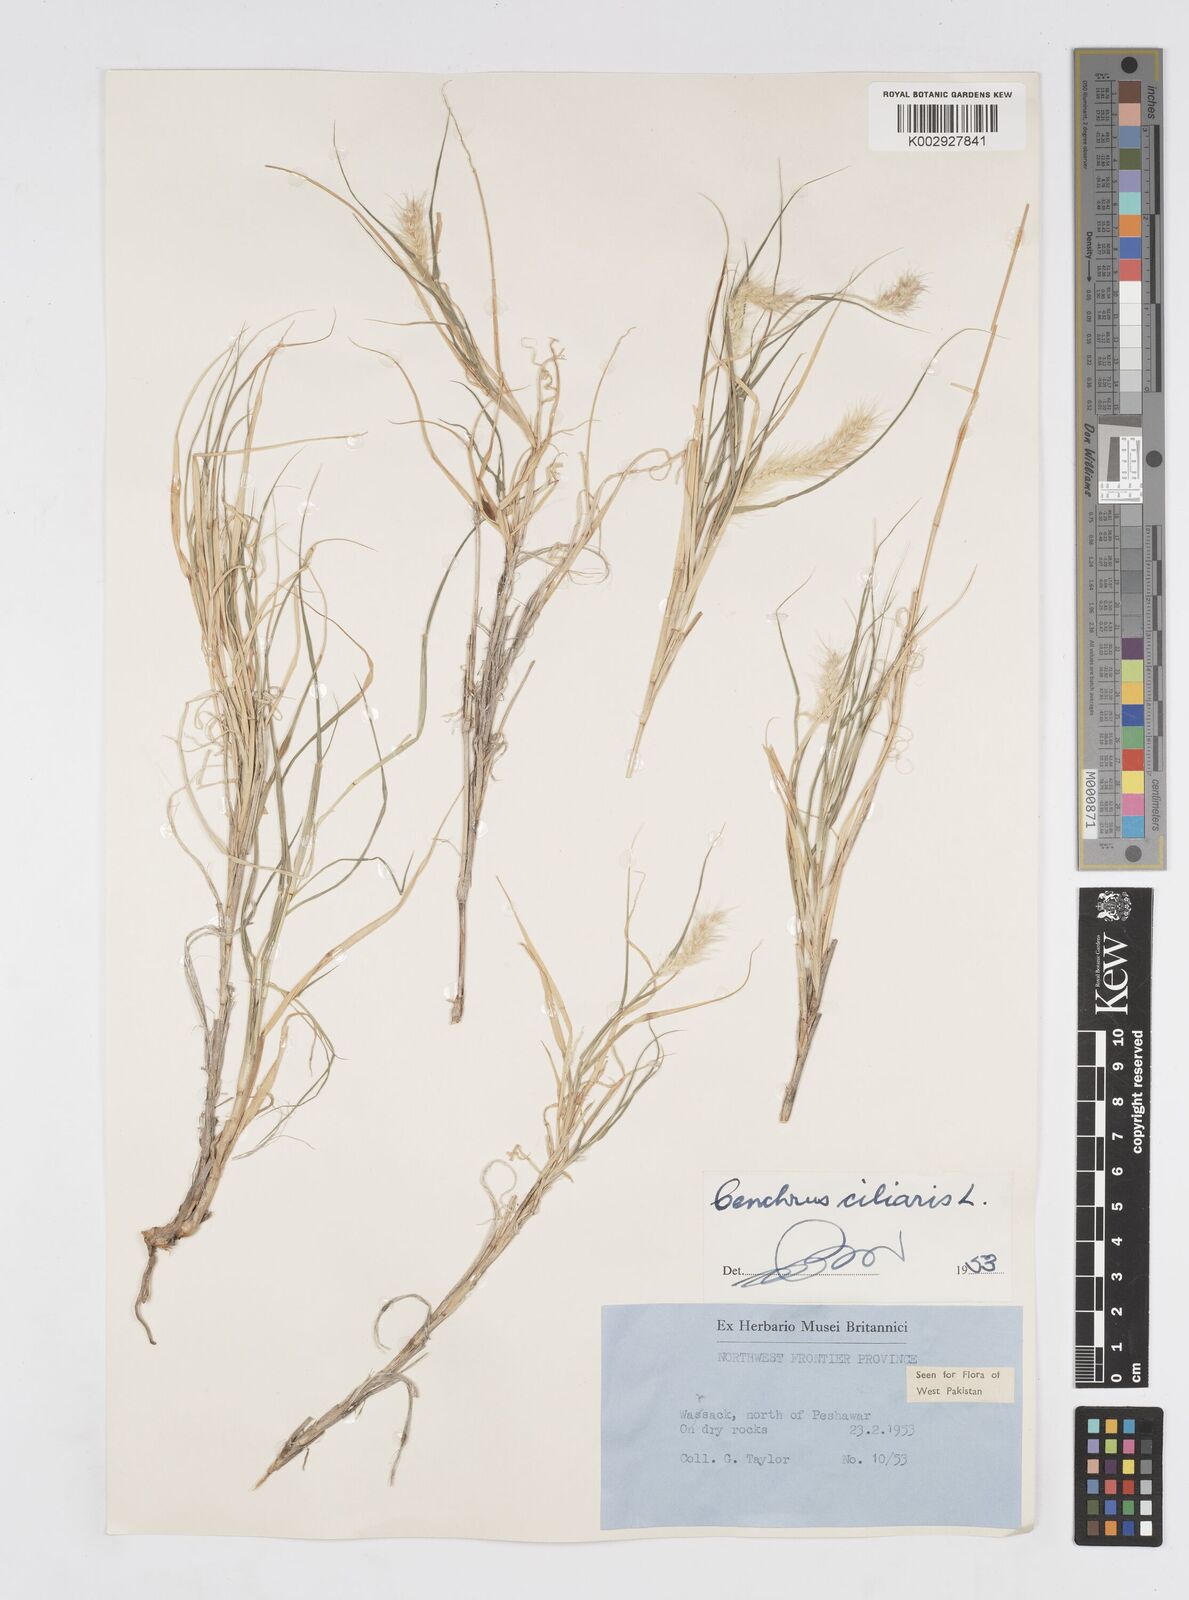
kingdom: Plantae
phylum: Tracheophyta
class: Liliopsida
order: Poales
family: Poaceae
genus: Cenchrus
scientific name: Cenchrus ciliaris
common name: Buffelgrass
